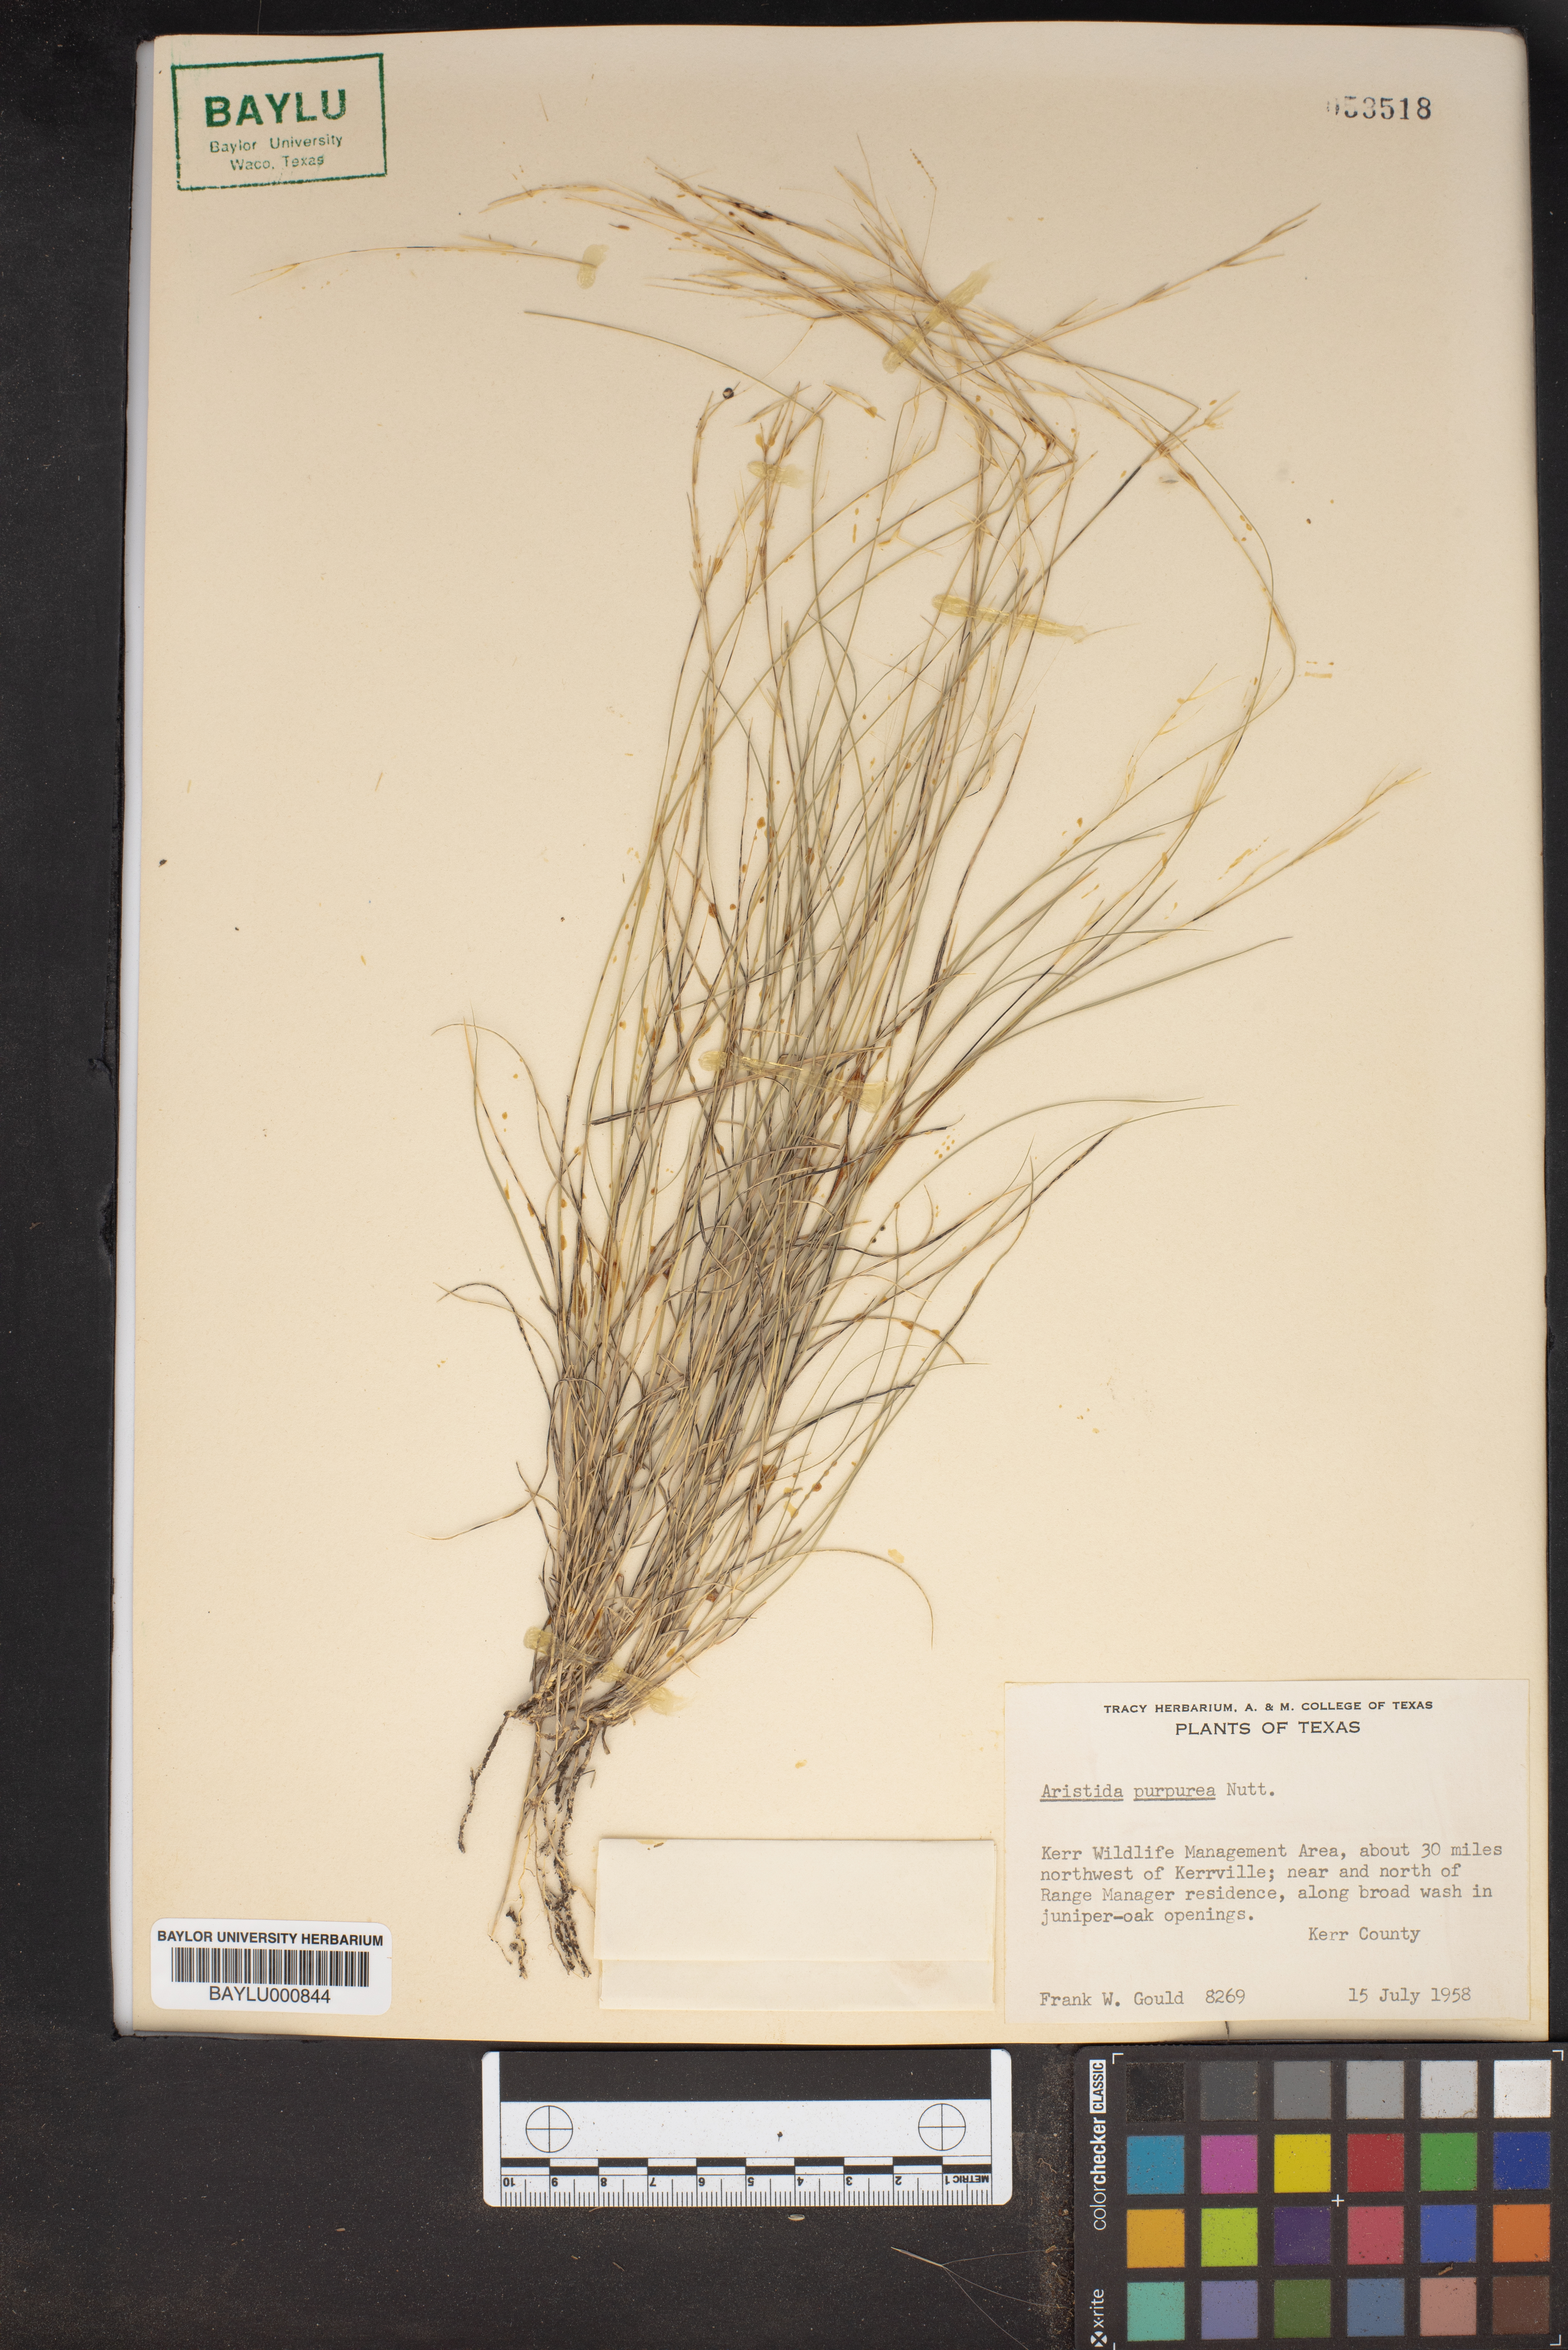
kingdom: Plantae
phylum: Tracheophyta
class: Liliopsida
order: Poales
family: Poaceae
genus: Aristida
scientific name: Aristida purpurea
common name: Purple threeawn
